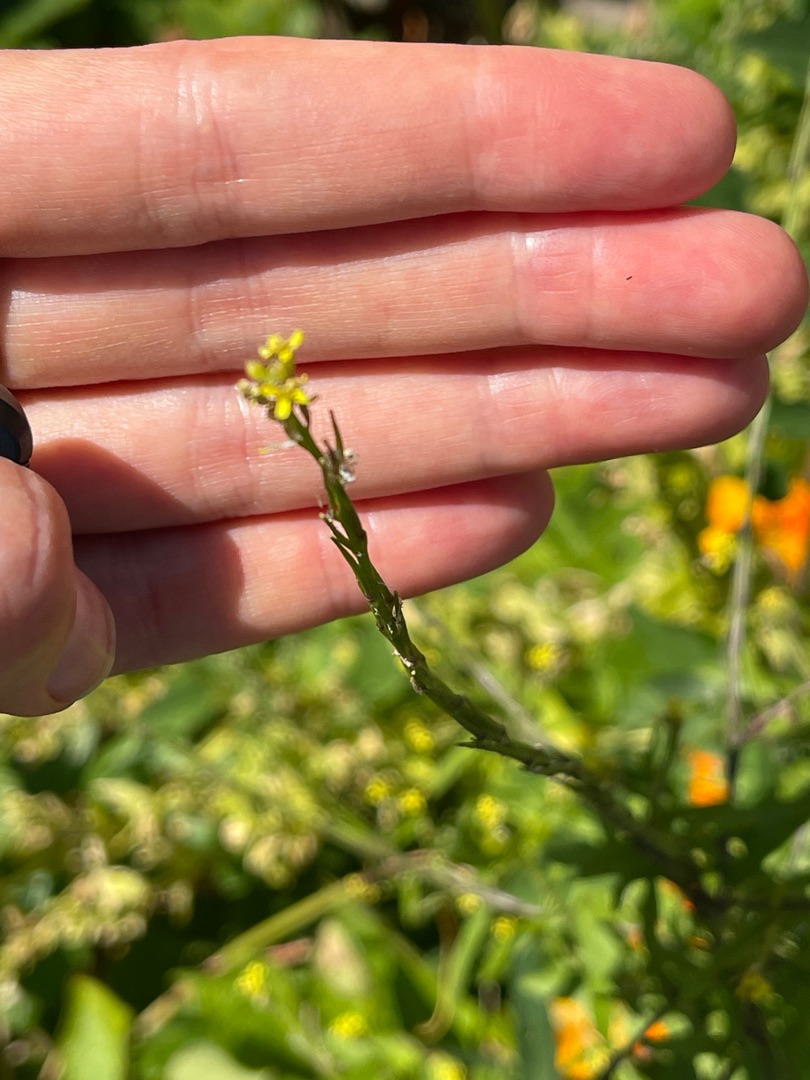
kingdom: Plantae
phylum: Tracheophyta
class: Magnoliopsida
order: Brassicales
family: Brassicaceae
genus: Sisymbrium
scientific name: Sisymbrium officinale
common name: Rank vejsennep
